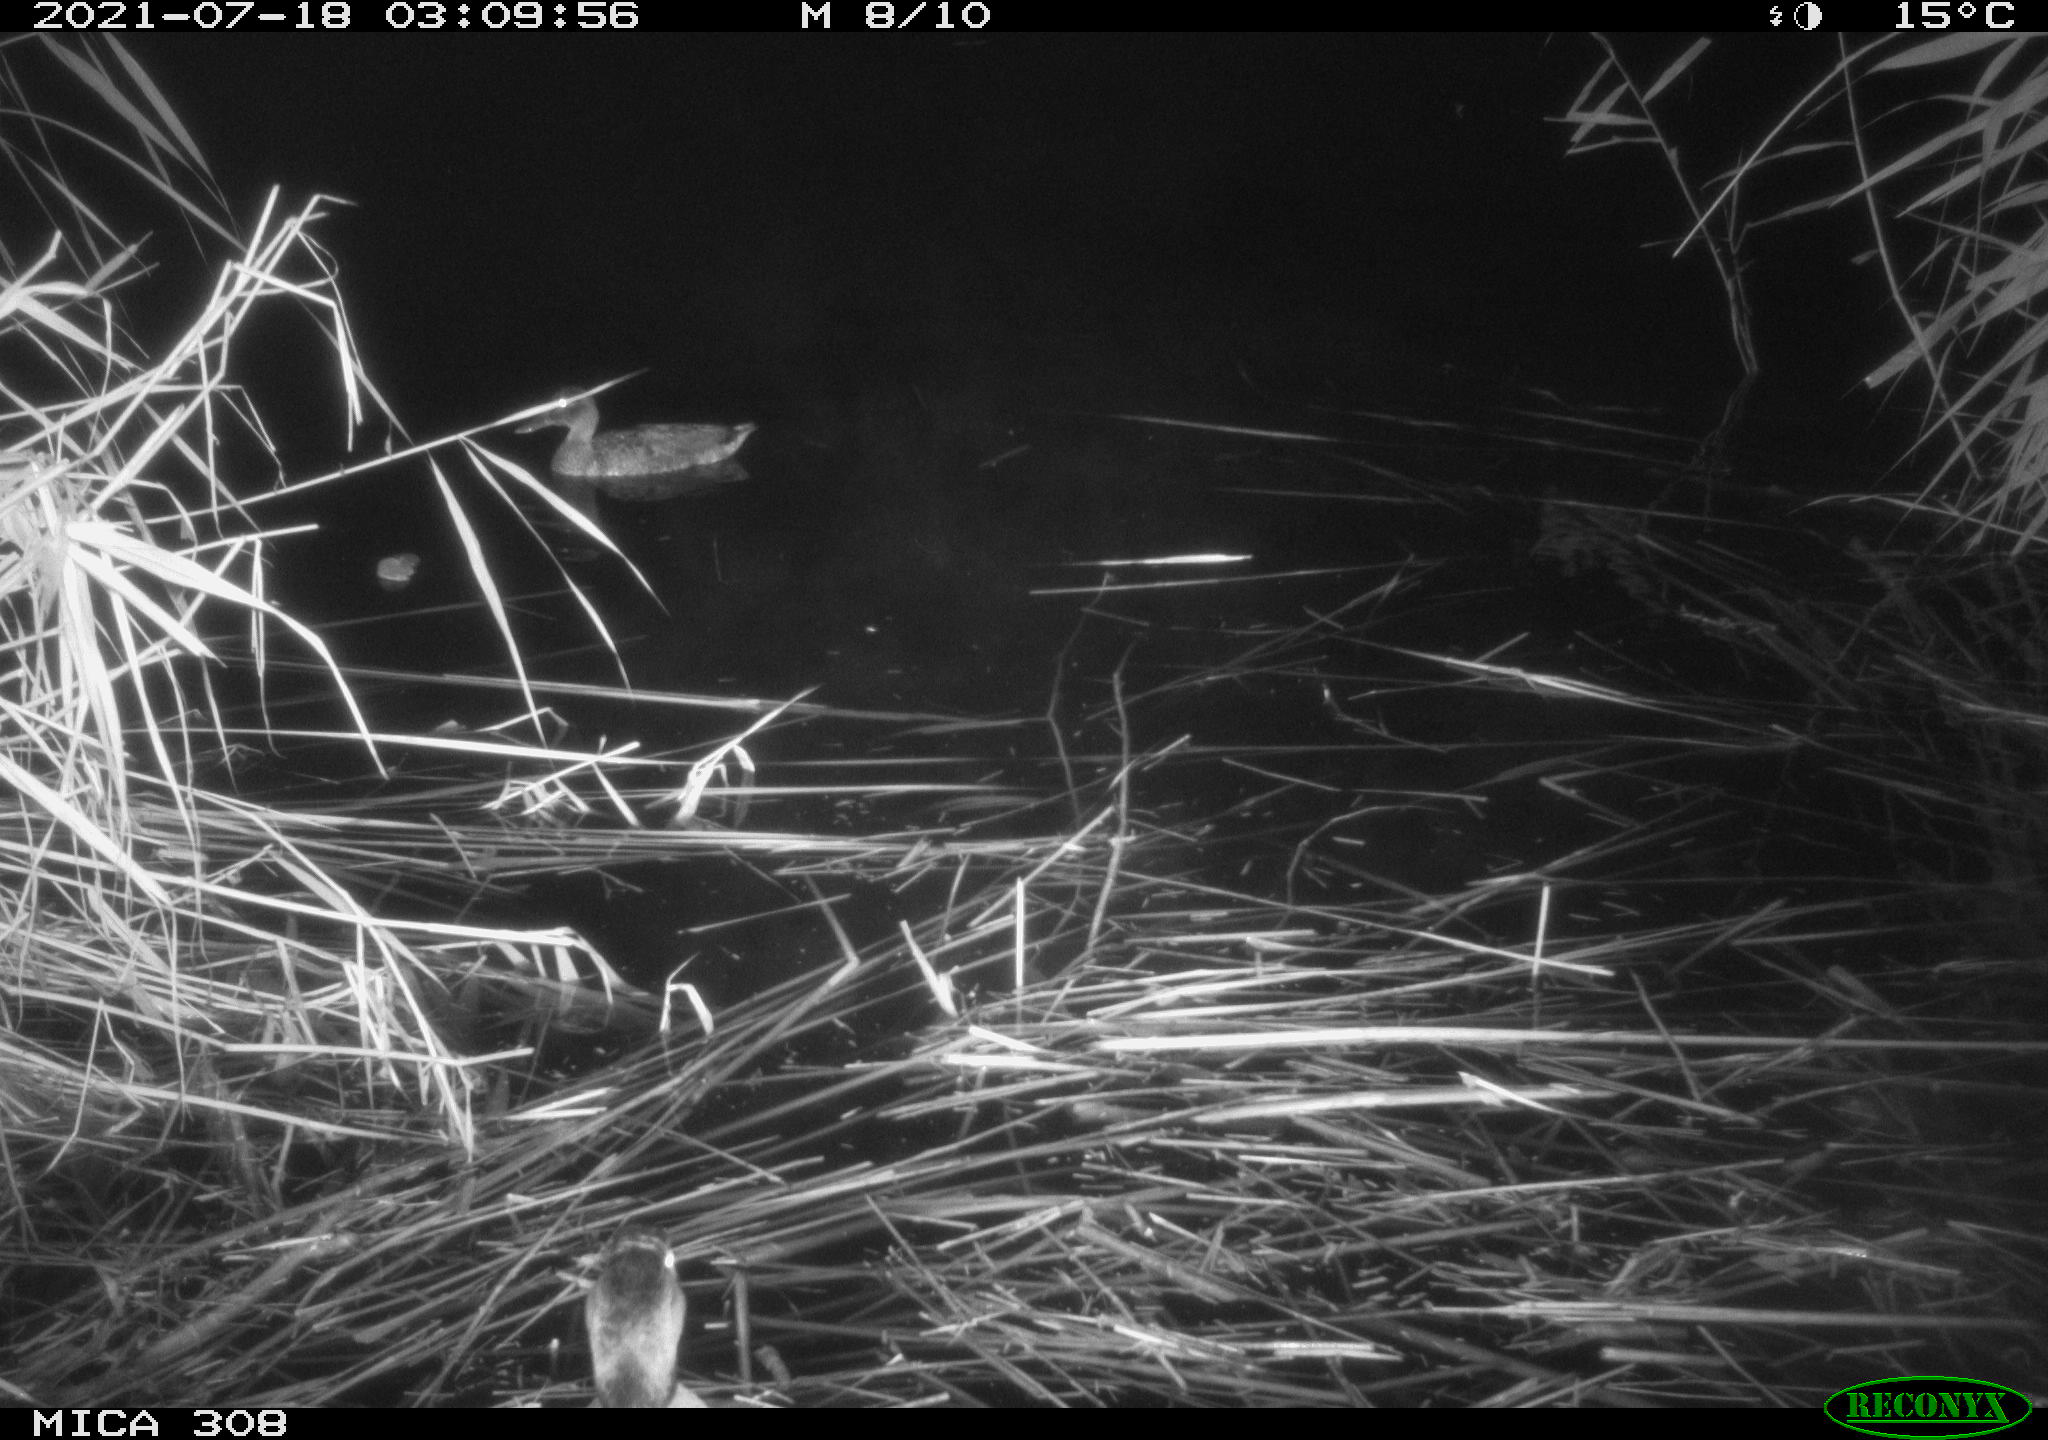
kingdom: Animalia
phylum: Chordata
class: Aves
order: Anseriformes
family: Anatidae
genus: Anas
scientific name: Anas platyrhynchos
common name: Mallard
